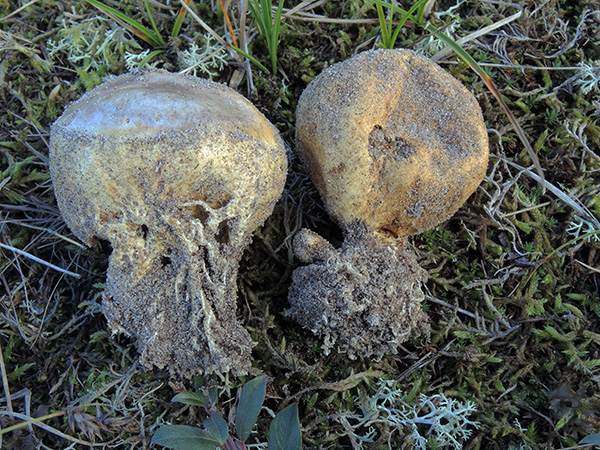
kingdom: Fungi
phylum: Basidiomycota
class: Agaricomycetes
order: Boletales
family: Sclerodermataceae
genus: Scleroderma
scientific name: Scleroderma septentrionale
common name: sand-bruskbold
